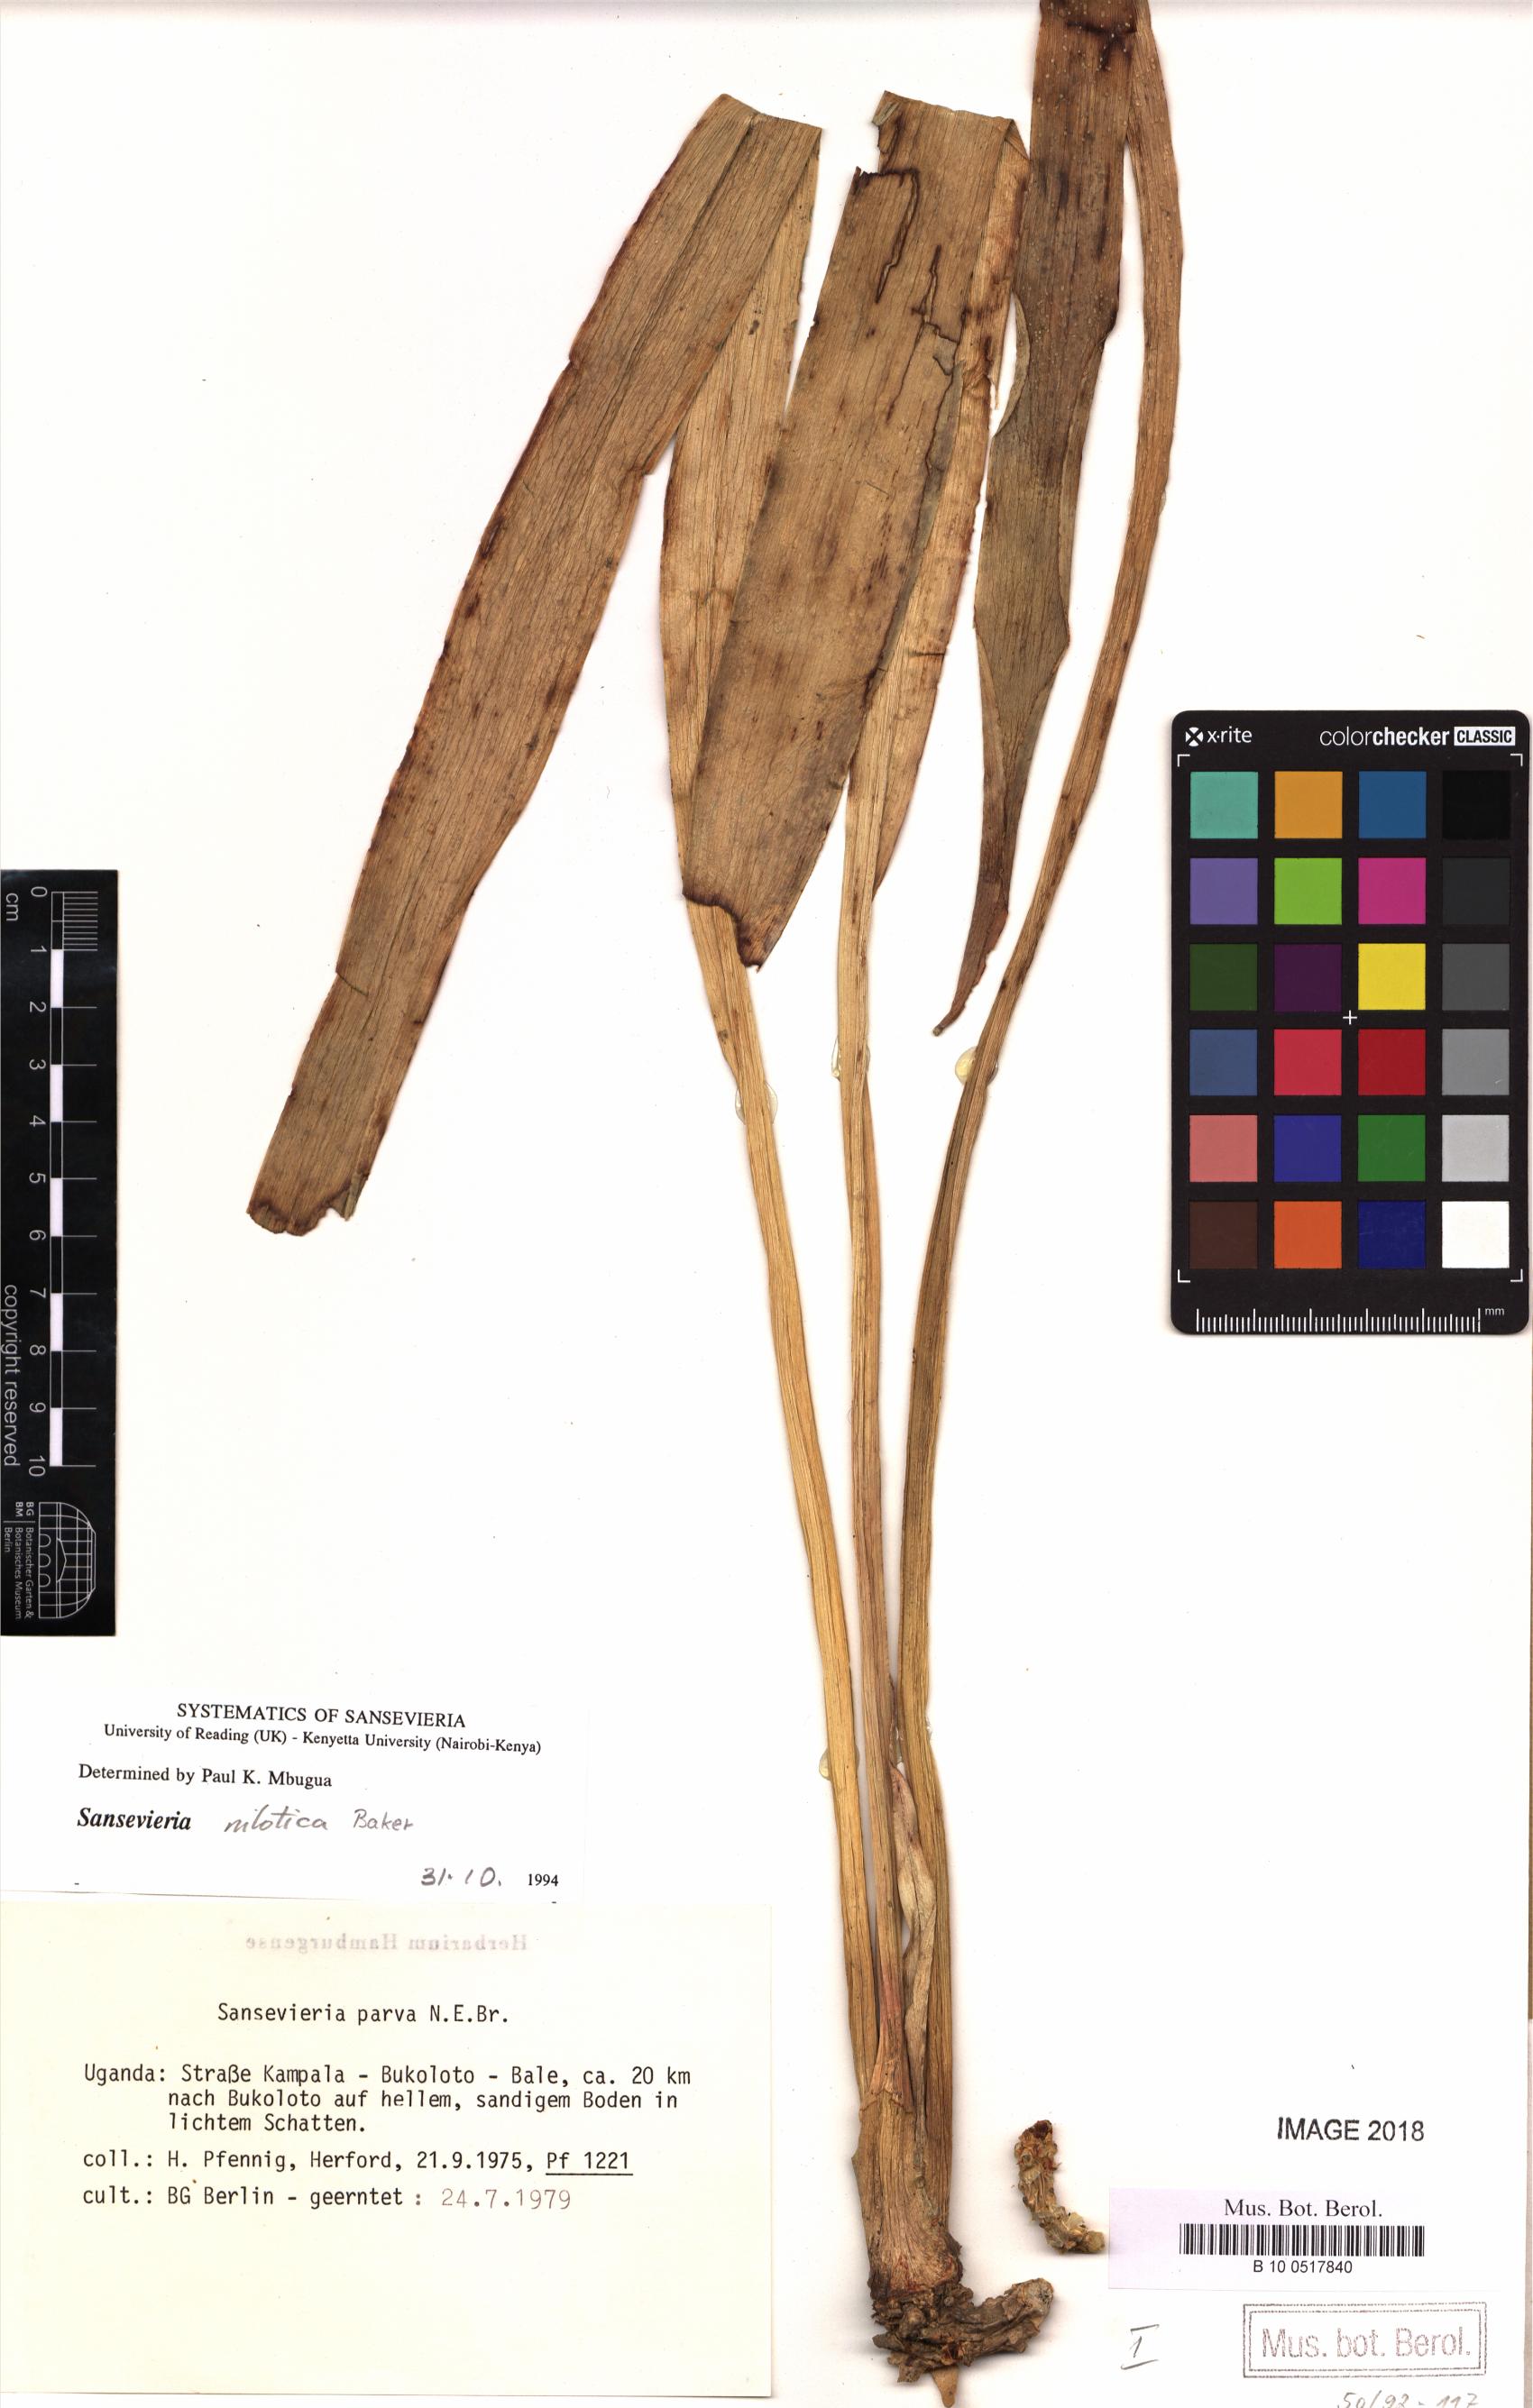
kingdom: Plantae
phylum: Tracheophyta
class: Liliopsida
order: Asparagales
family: Asparagaceae
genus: Dracaena
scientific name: Dracaena nilotica
